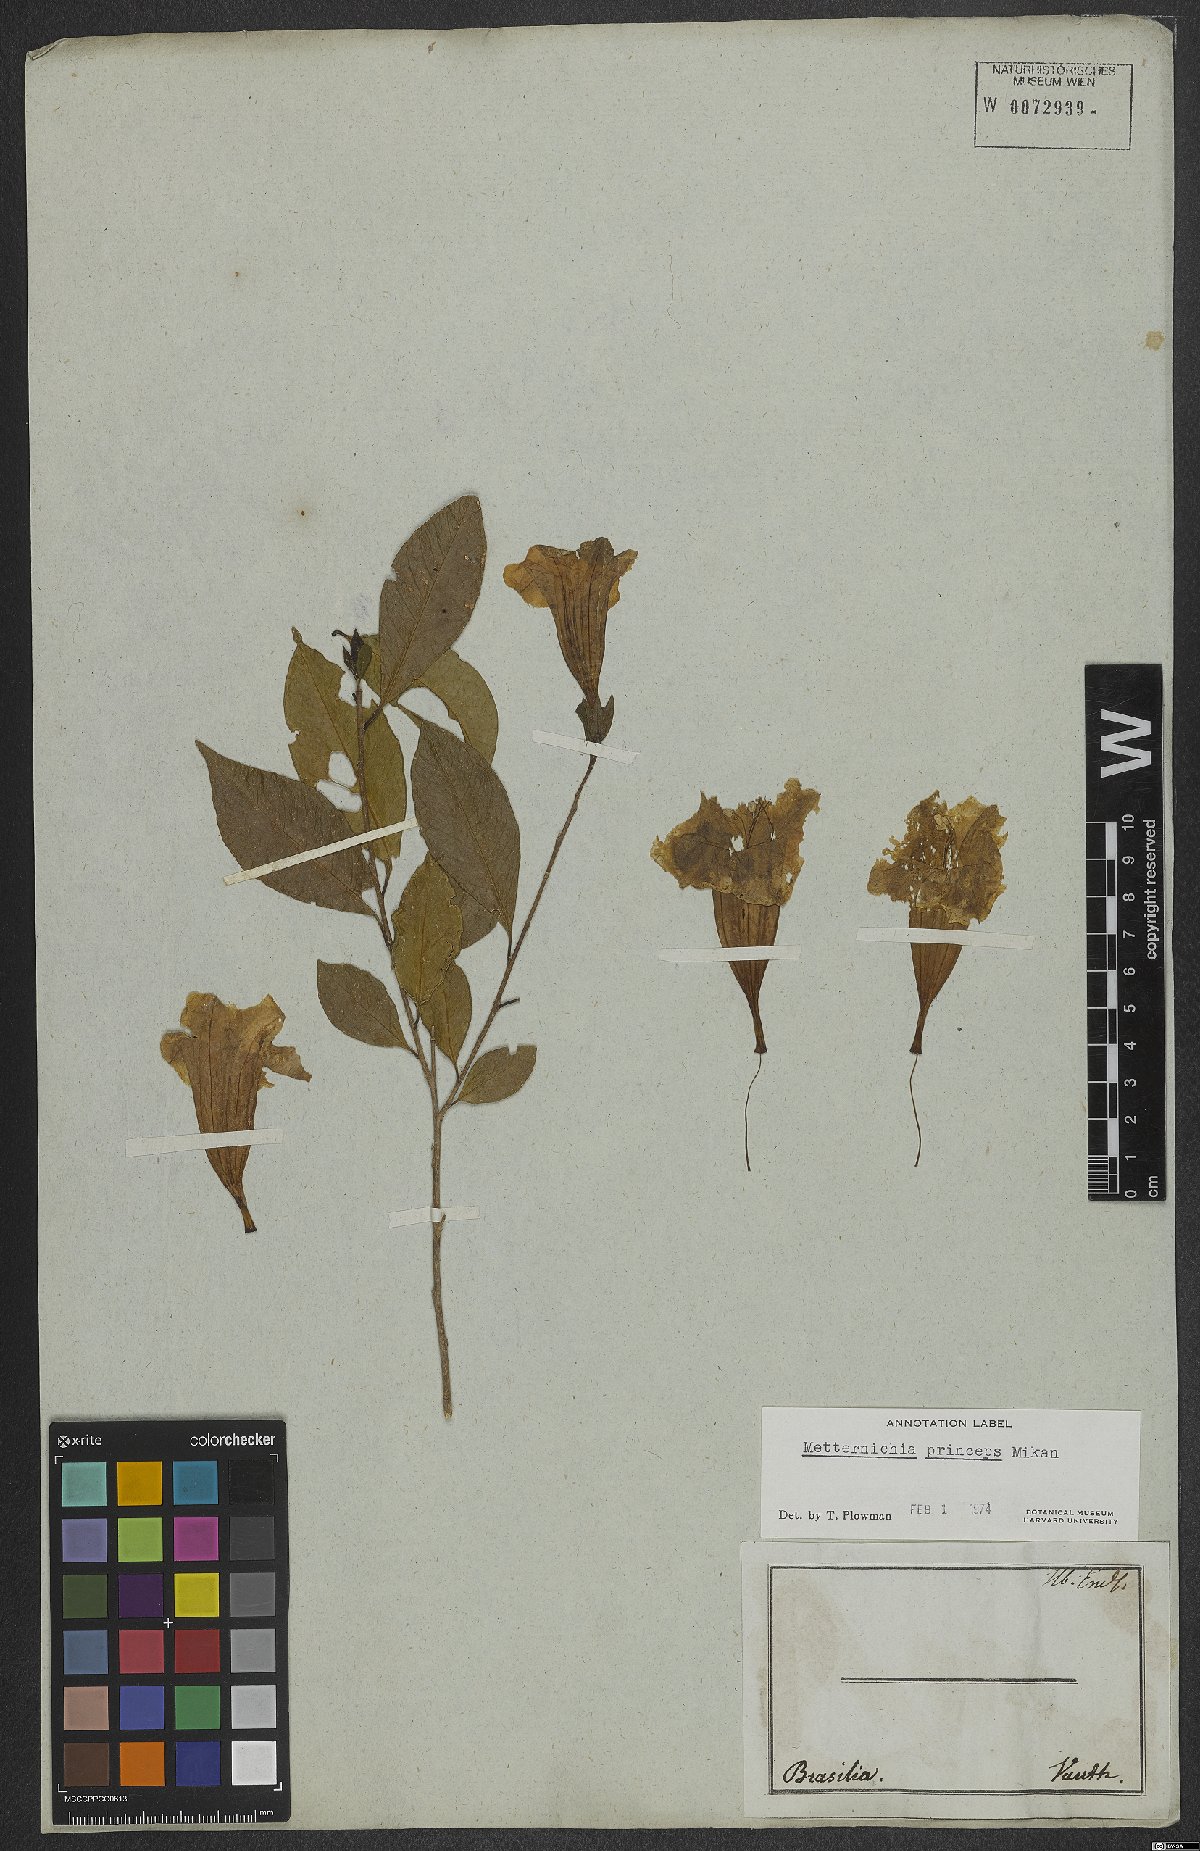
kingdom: Plantae
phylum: Tracheophyta
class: Magnoliopsida
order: Solanales
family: Solanaceae
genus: Metternichia
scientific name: Metternichia principis
